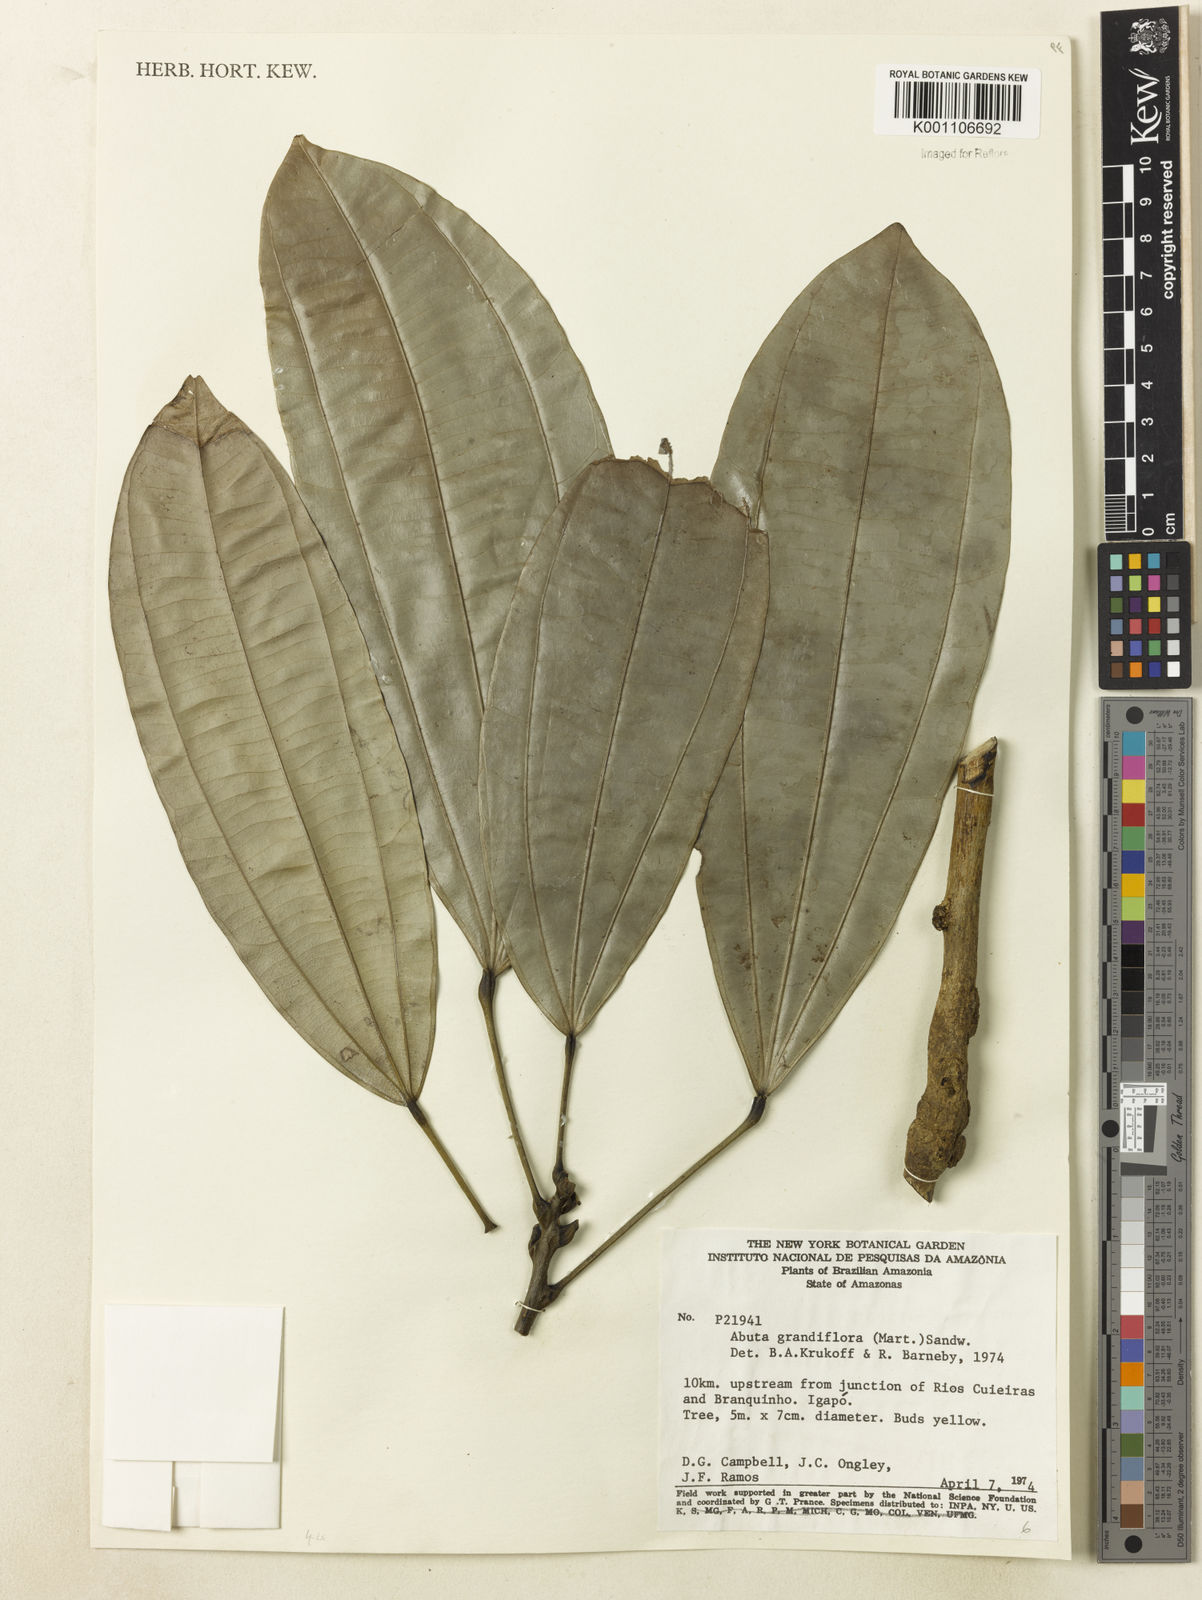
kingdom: Plantae
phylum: Tracheophyta
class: Magnoliopsida
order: Ranunculales
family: Menispermaceae
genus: Abuta
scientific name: Abuta grandifolia
